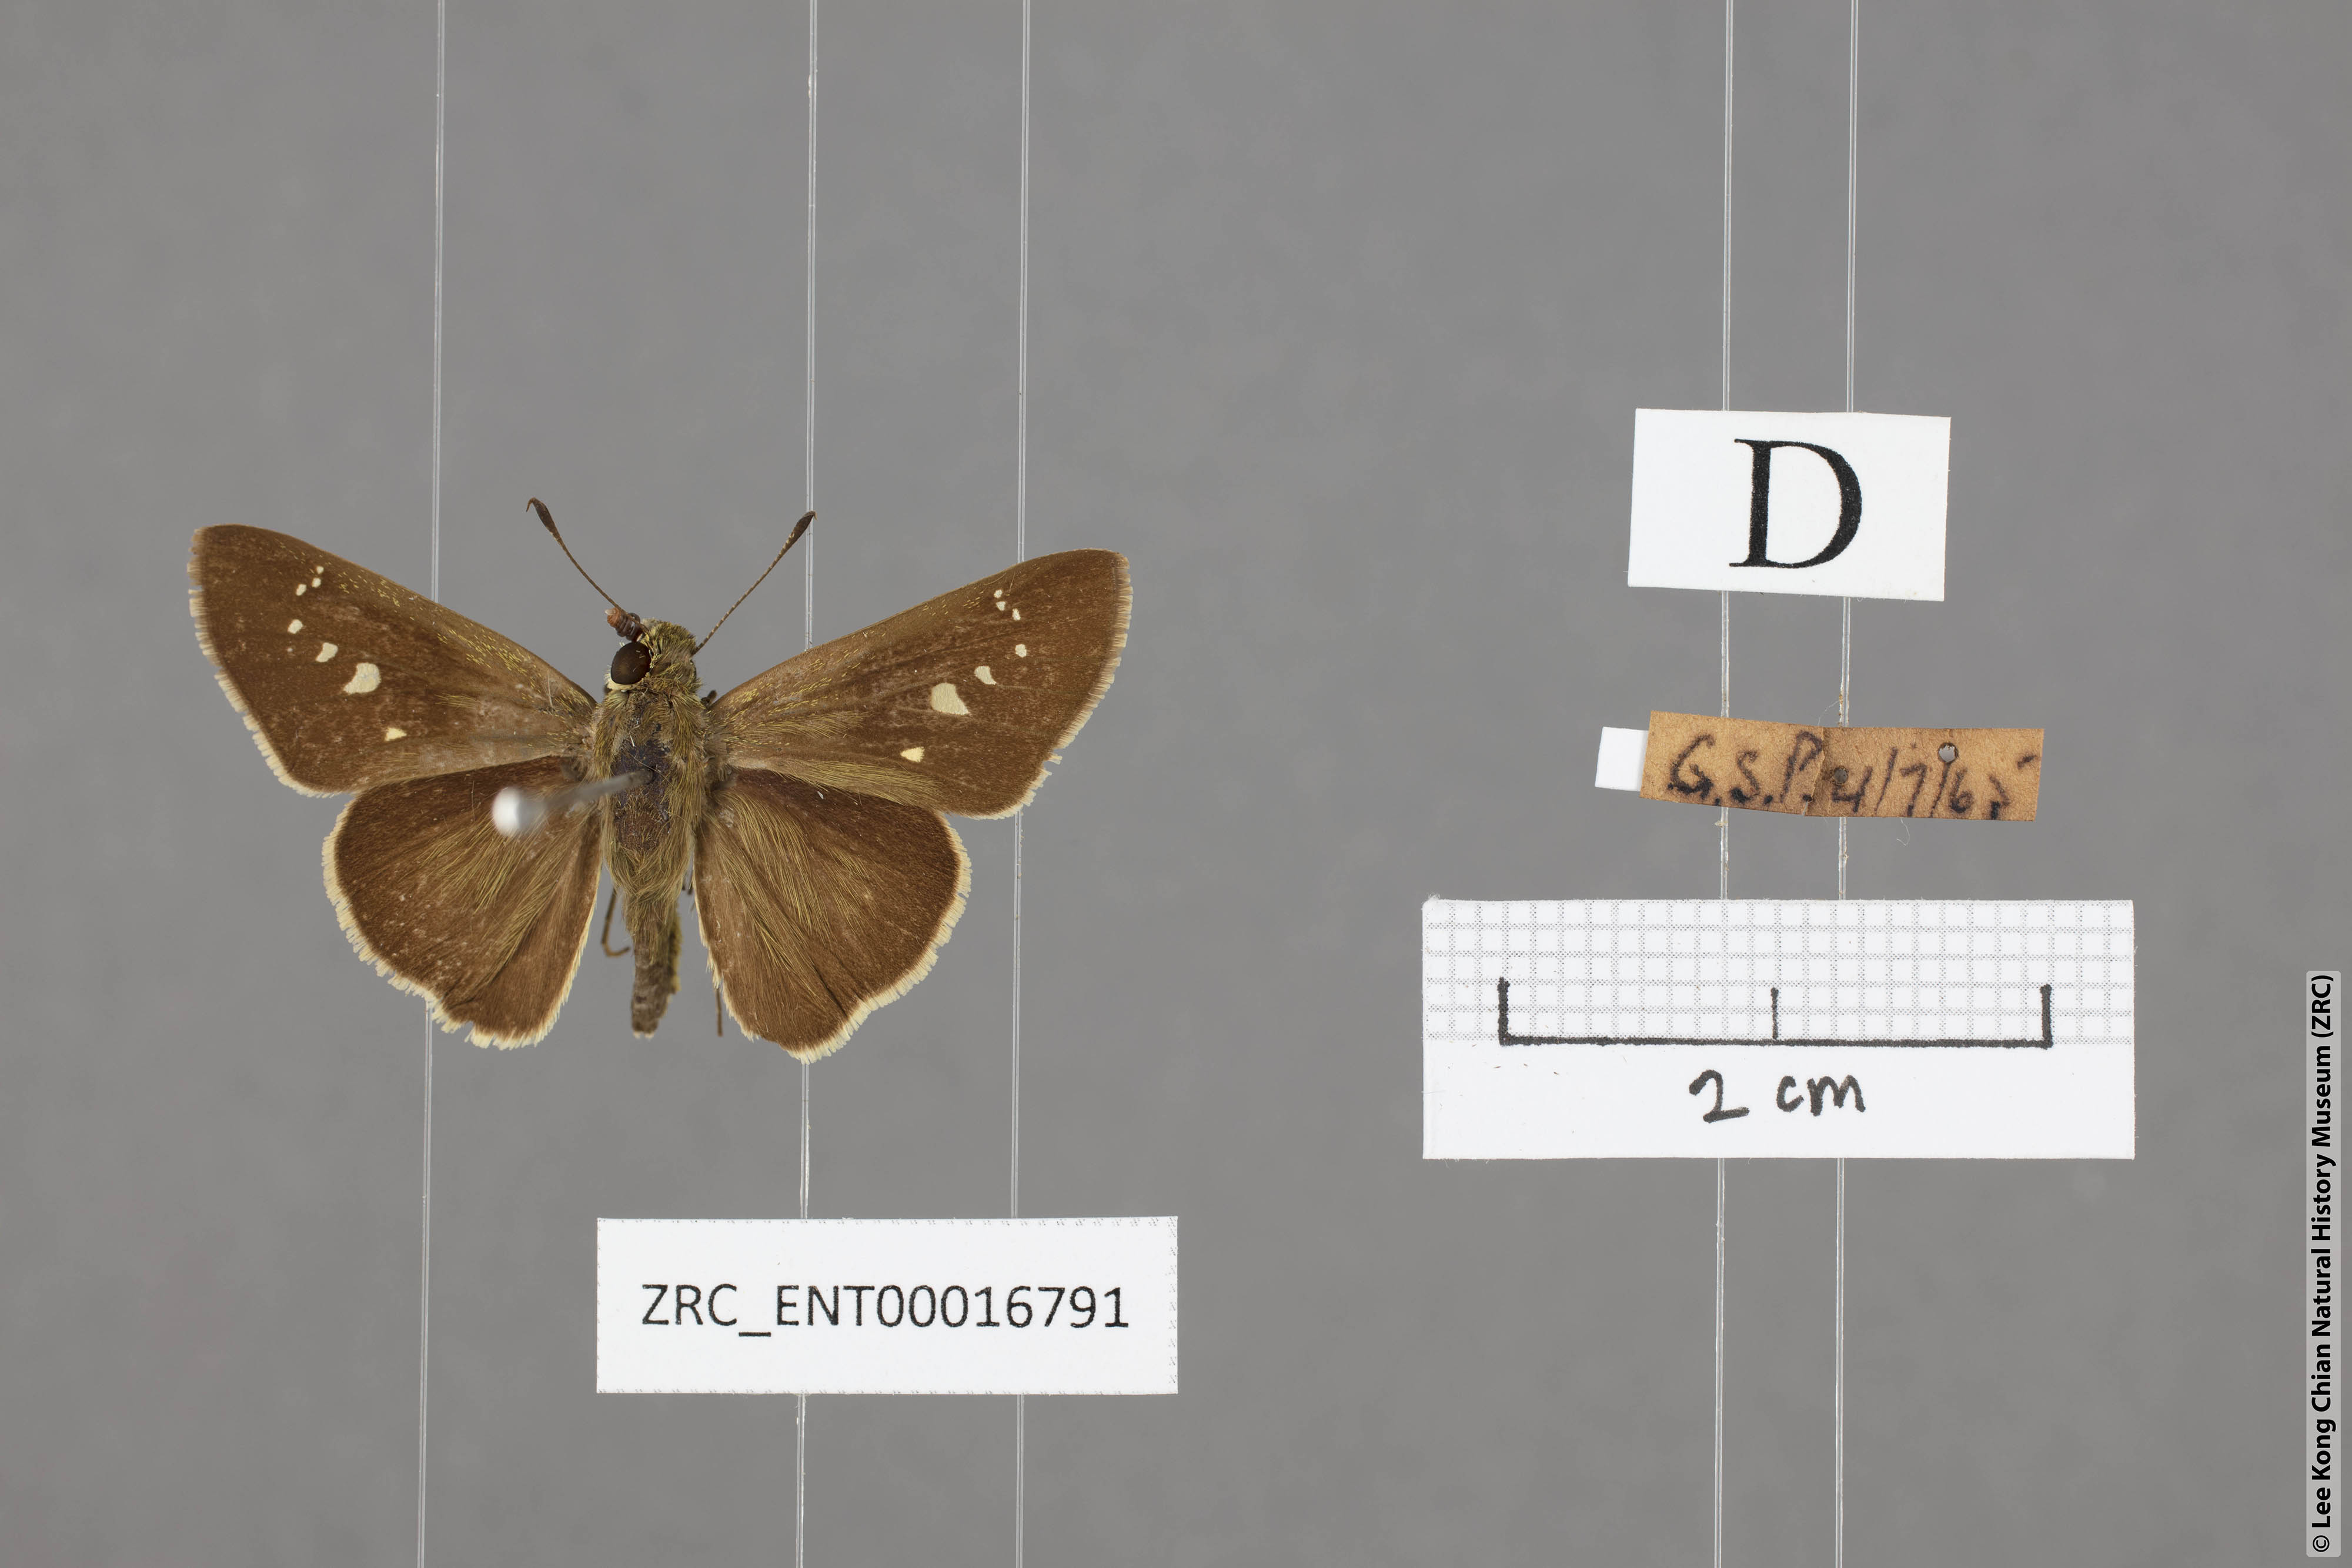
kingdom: Animalia
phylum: Arthropoda
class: Insecta
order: Lepidoptera
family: Hesperiidae
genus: Borbo
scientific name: Borbo cinnara
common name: Formosan swift
